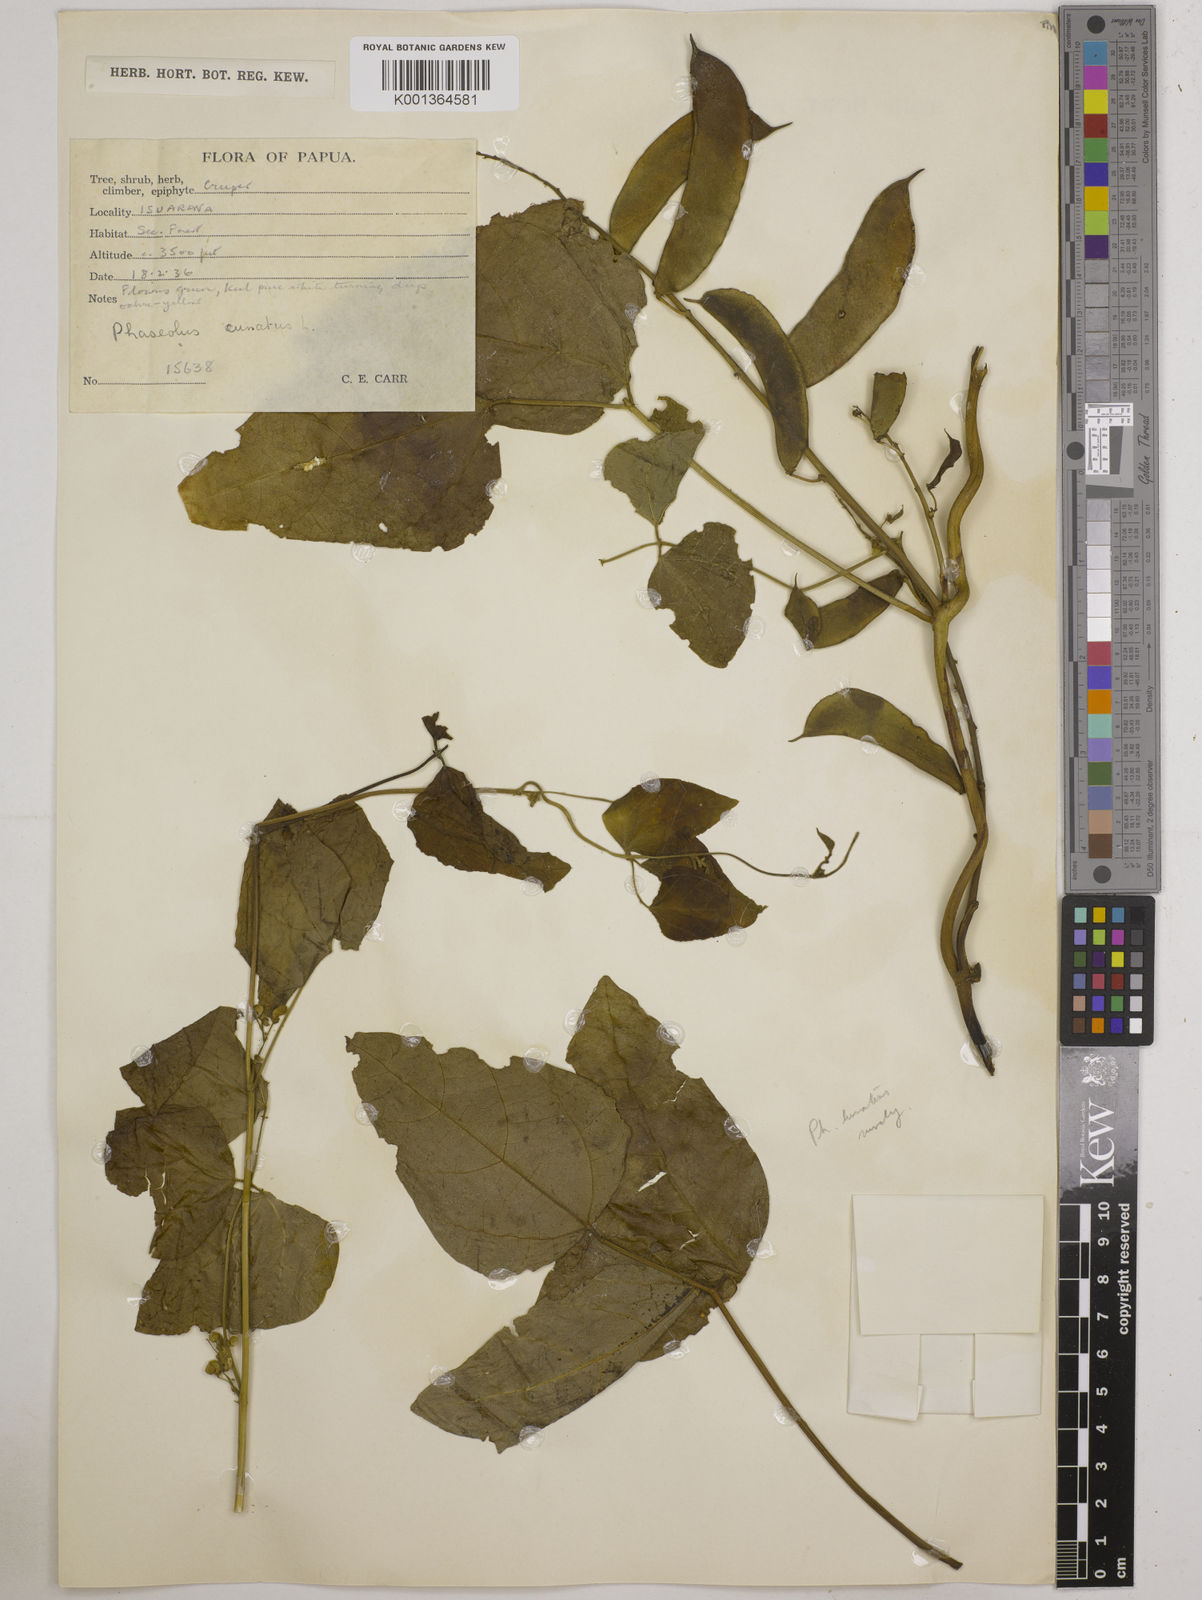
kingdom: Plantae
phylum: Tracheophyta
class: Magnoliopsida
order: Fabales
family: Fabaceae
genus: Phaseolus
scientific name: Phaseolus lunatus
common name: Sieva bean
